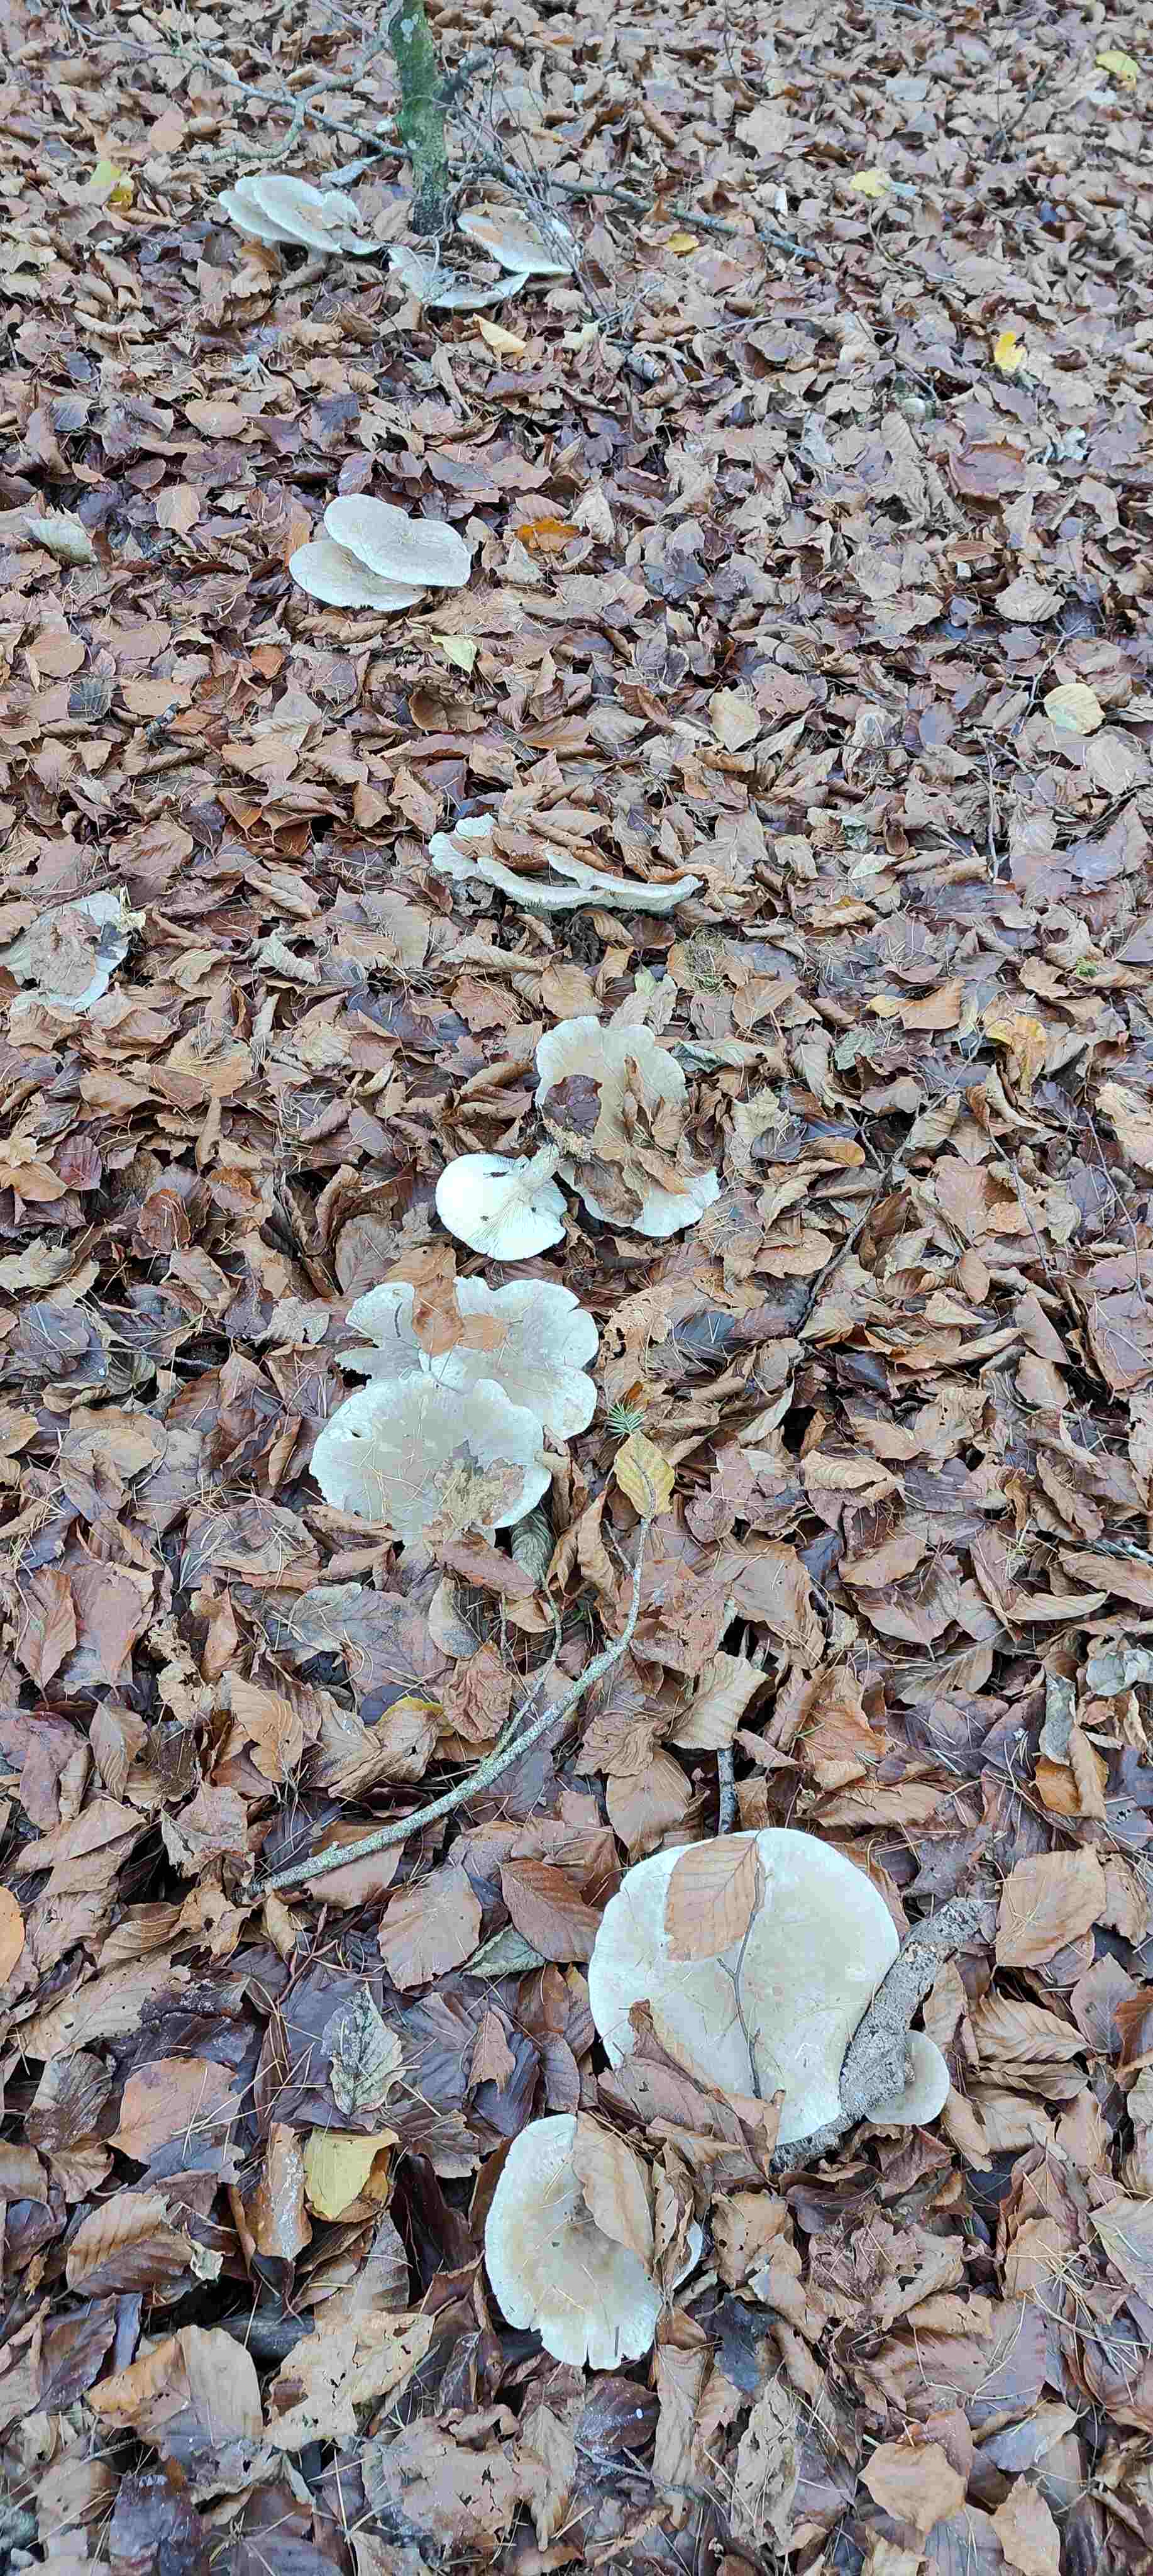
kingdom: Fungi
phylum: Basidiomycota
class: Agaricomycetes
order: Agaricales
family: Tricholomataceae
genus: Clitocybe
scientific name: Clitocybe nebularis
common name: tåge-tragthat
